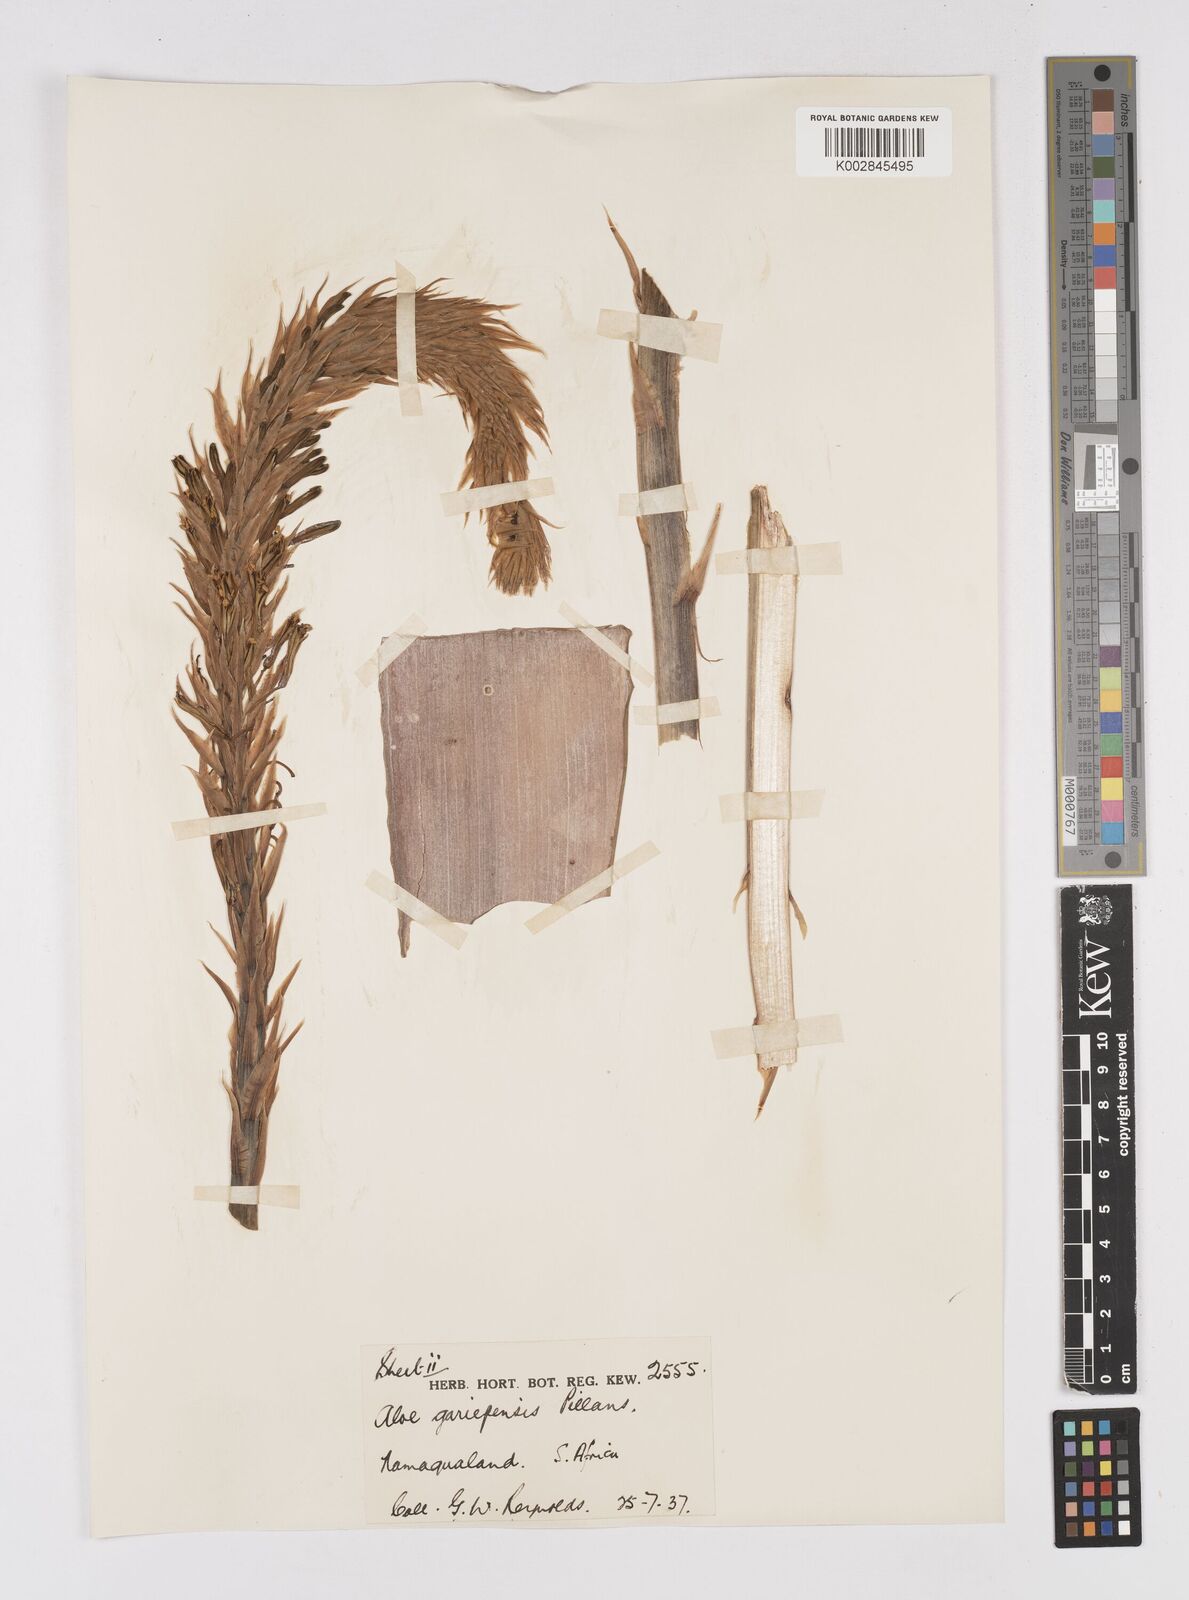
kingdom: Plantae
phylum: Tracheophyta
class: Liliopsida
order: Asparagales
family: Asphodelaceae
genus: Aloe
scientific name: Aloe gariepensis
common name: Orange river aloe
